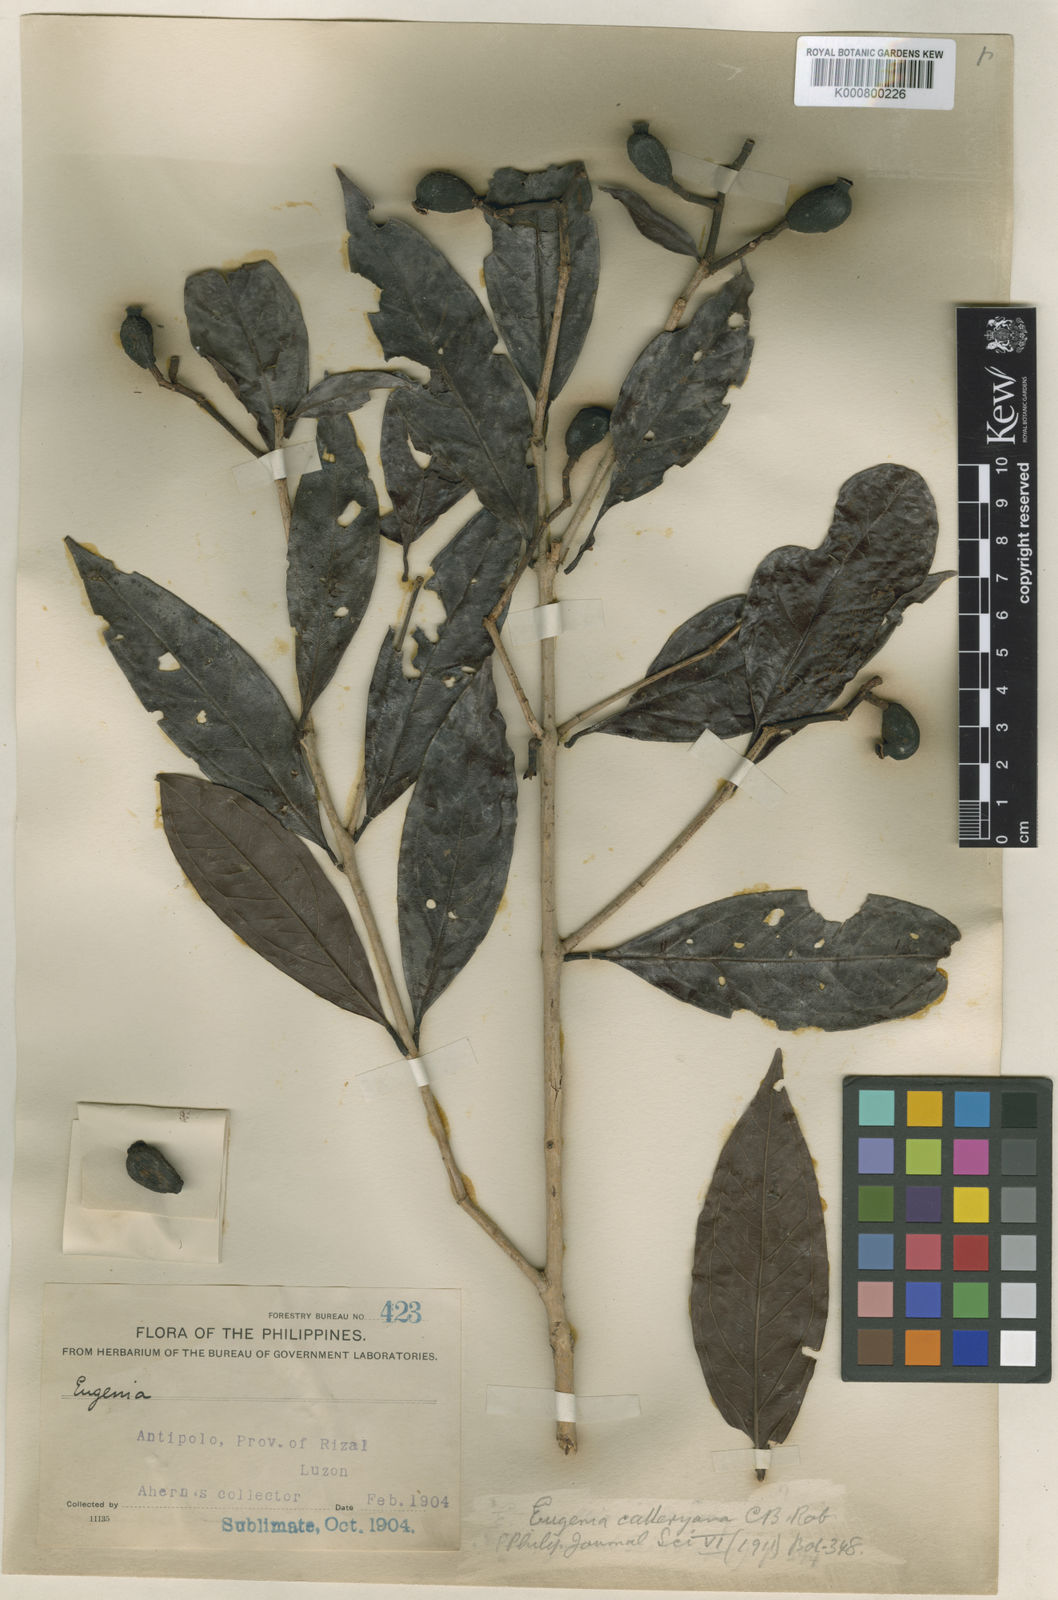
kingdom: Plantae
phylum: Tracheophyta
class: Magnoliopsida
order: Myrtales
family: Myrtaceae
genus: Syzygium
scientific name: Syzygium calleryanum
